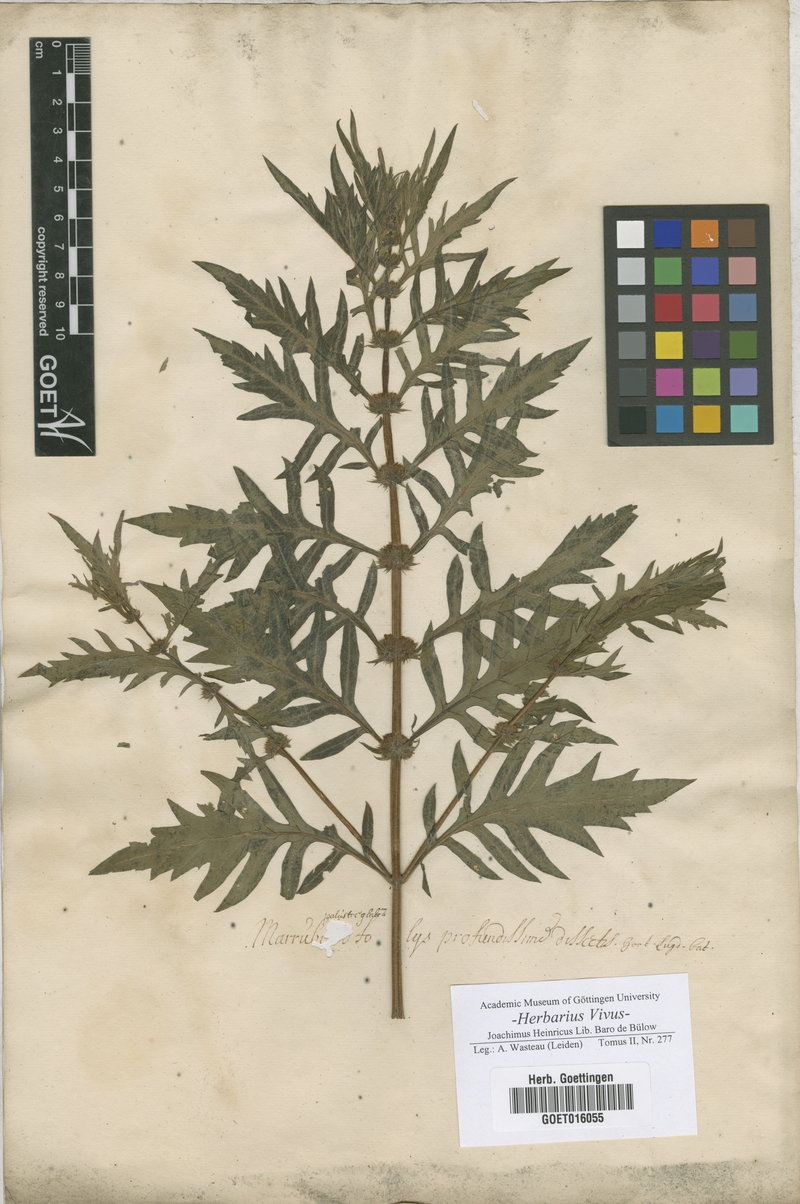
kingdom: Plantae
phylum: Tracheophyta
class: Magnoliopsida
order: Lamiales
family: Lamiaceae
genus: Lycopus
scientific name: Lycopus europaeus
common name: European bugleweed
